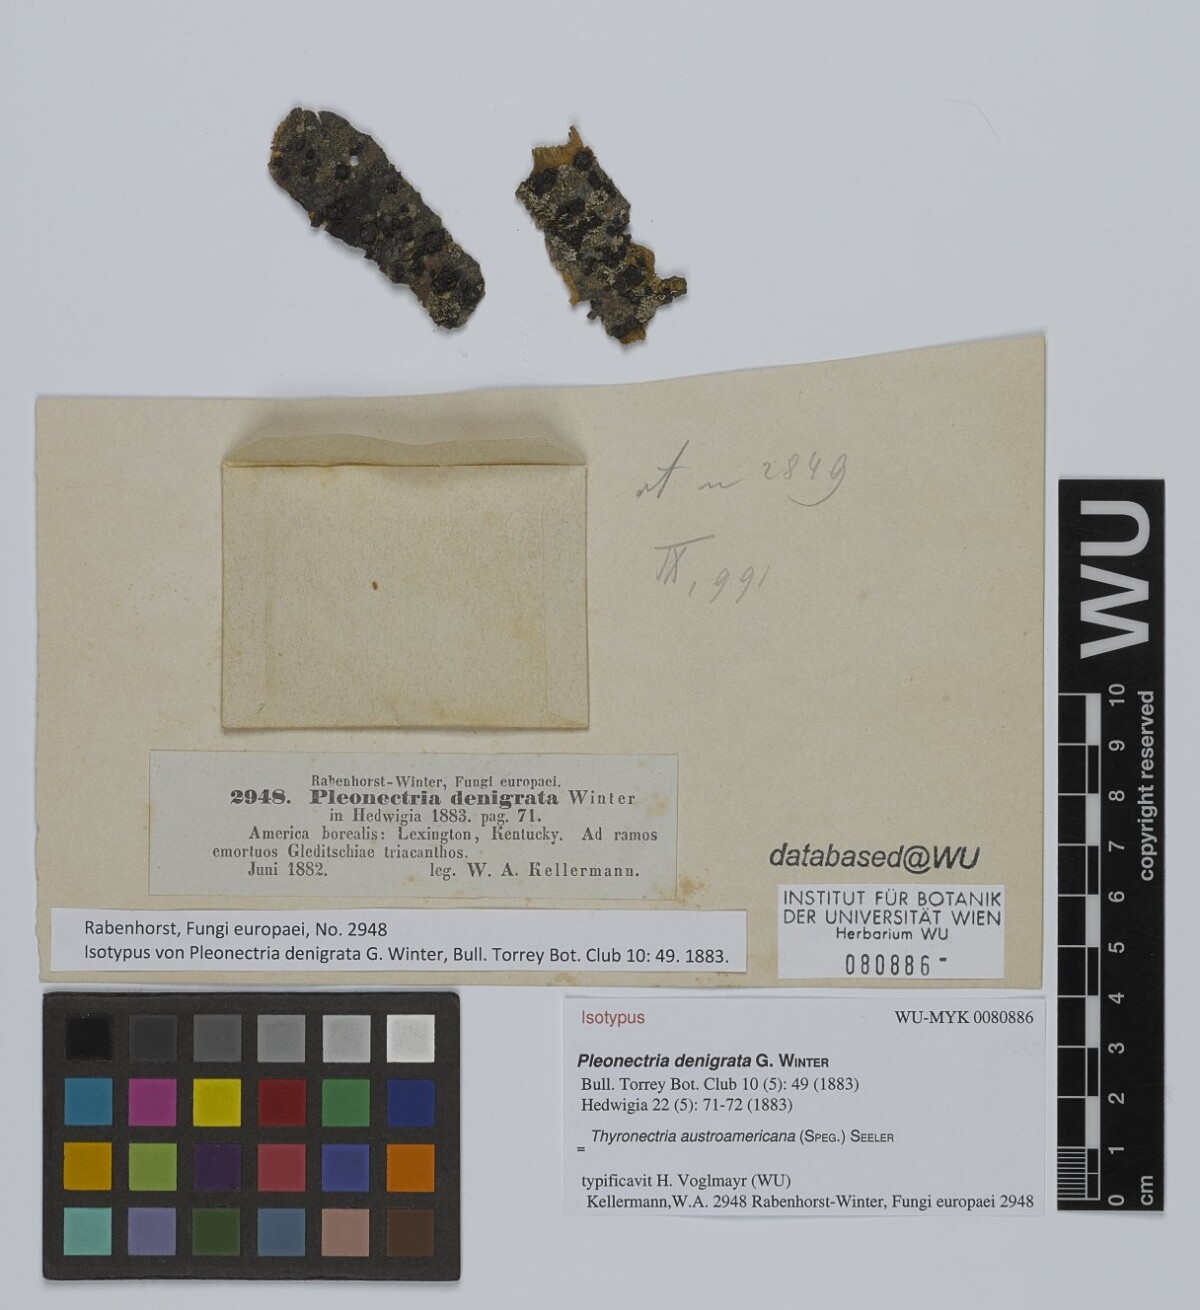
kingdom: Fungi
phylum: Ascomycota
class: Sordariomycetes
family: Thyridiaceae
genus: Thyronectria
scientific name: Thyronectria denigrata
